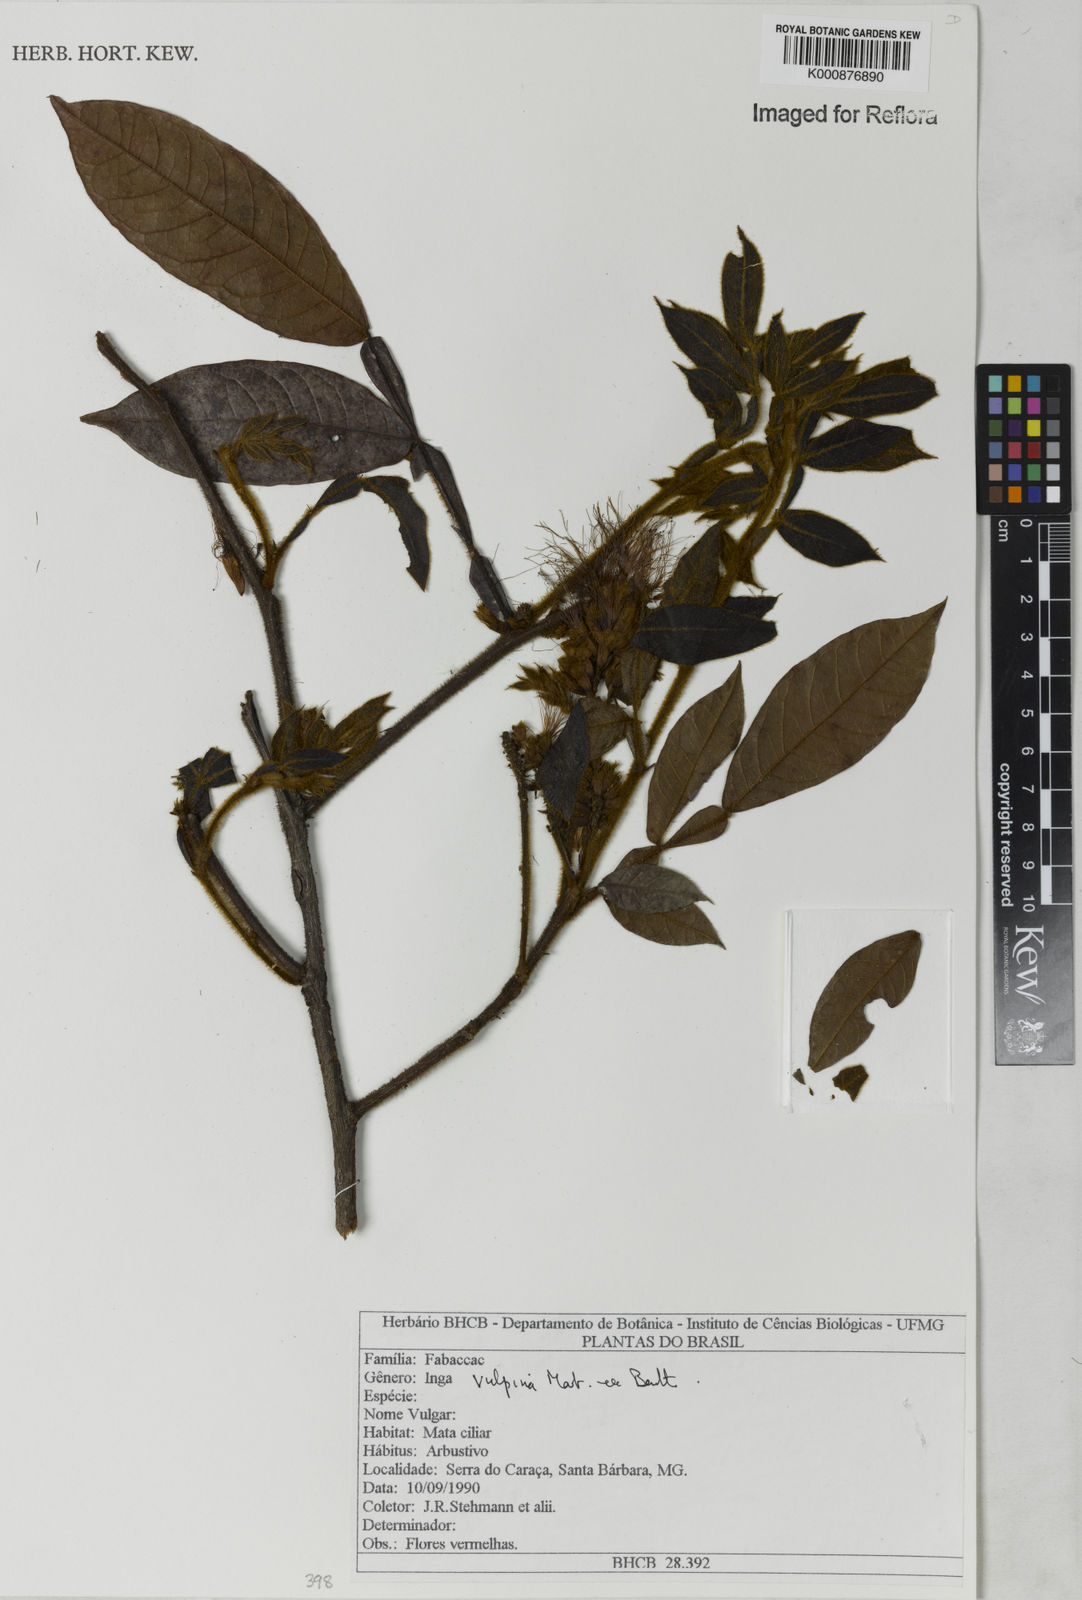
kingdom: Plantae
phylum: Tracheophyta
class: Magnoliopsida
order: Fabales
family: Fabaceae
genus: Inga
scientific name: Inga vulpina
